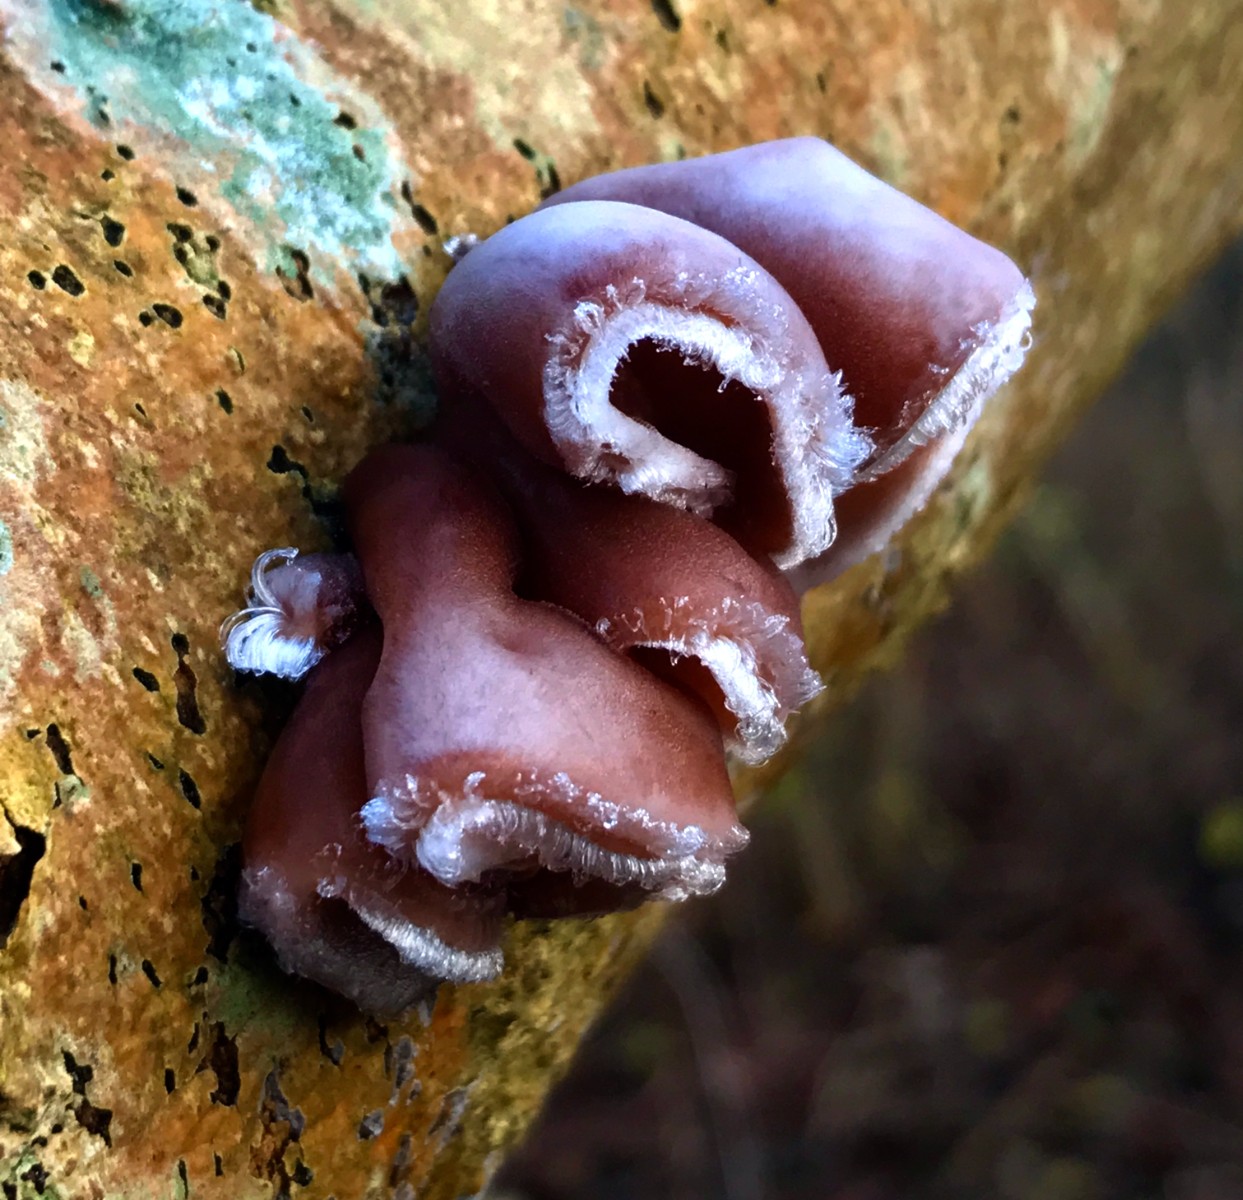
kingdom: Fungi
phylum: Basidiomycota
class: Agaricomycetes
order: Auriculariales
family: Auriculariaceae
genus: Auricularia
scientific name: Auricularia auricula-judae
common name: almindelig judasøre
